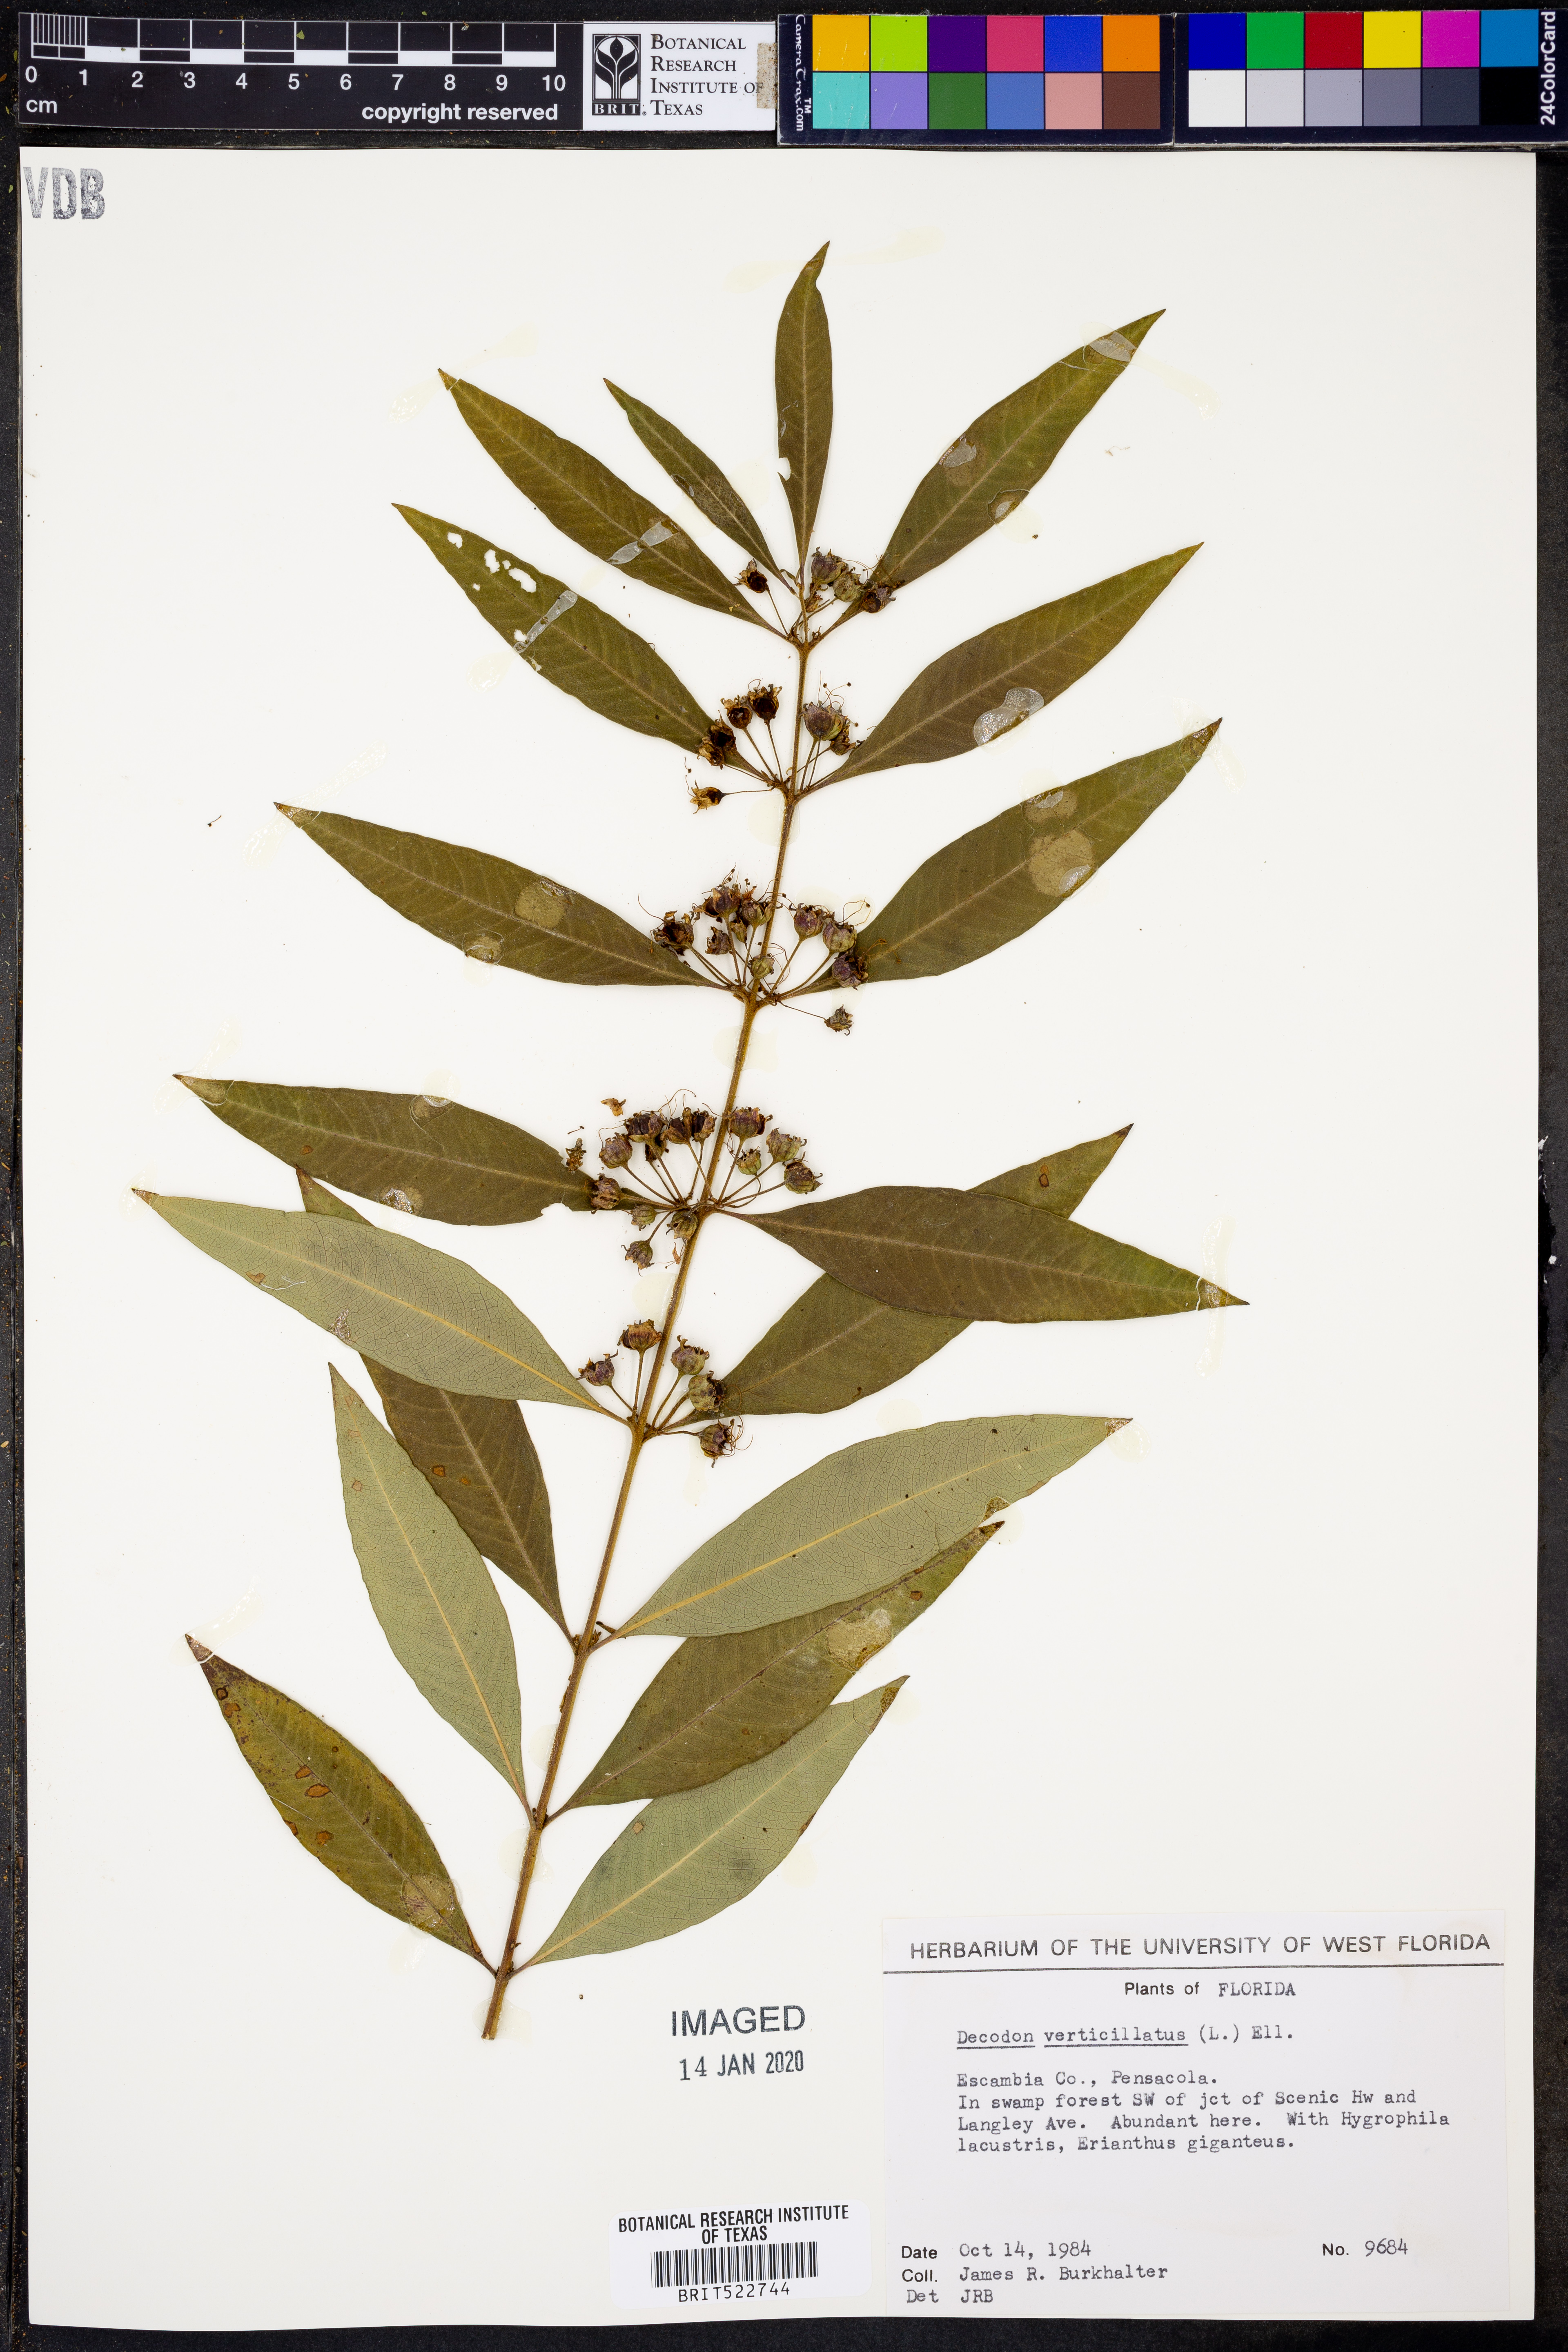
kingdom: Plantae
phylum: Tracheophyta
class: Magnoliopsida
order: Myrtales
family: Lythraceae
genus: Decodon
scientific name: Decodon verticillatus
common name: Hairy swamp loosestrife
